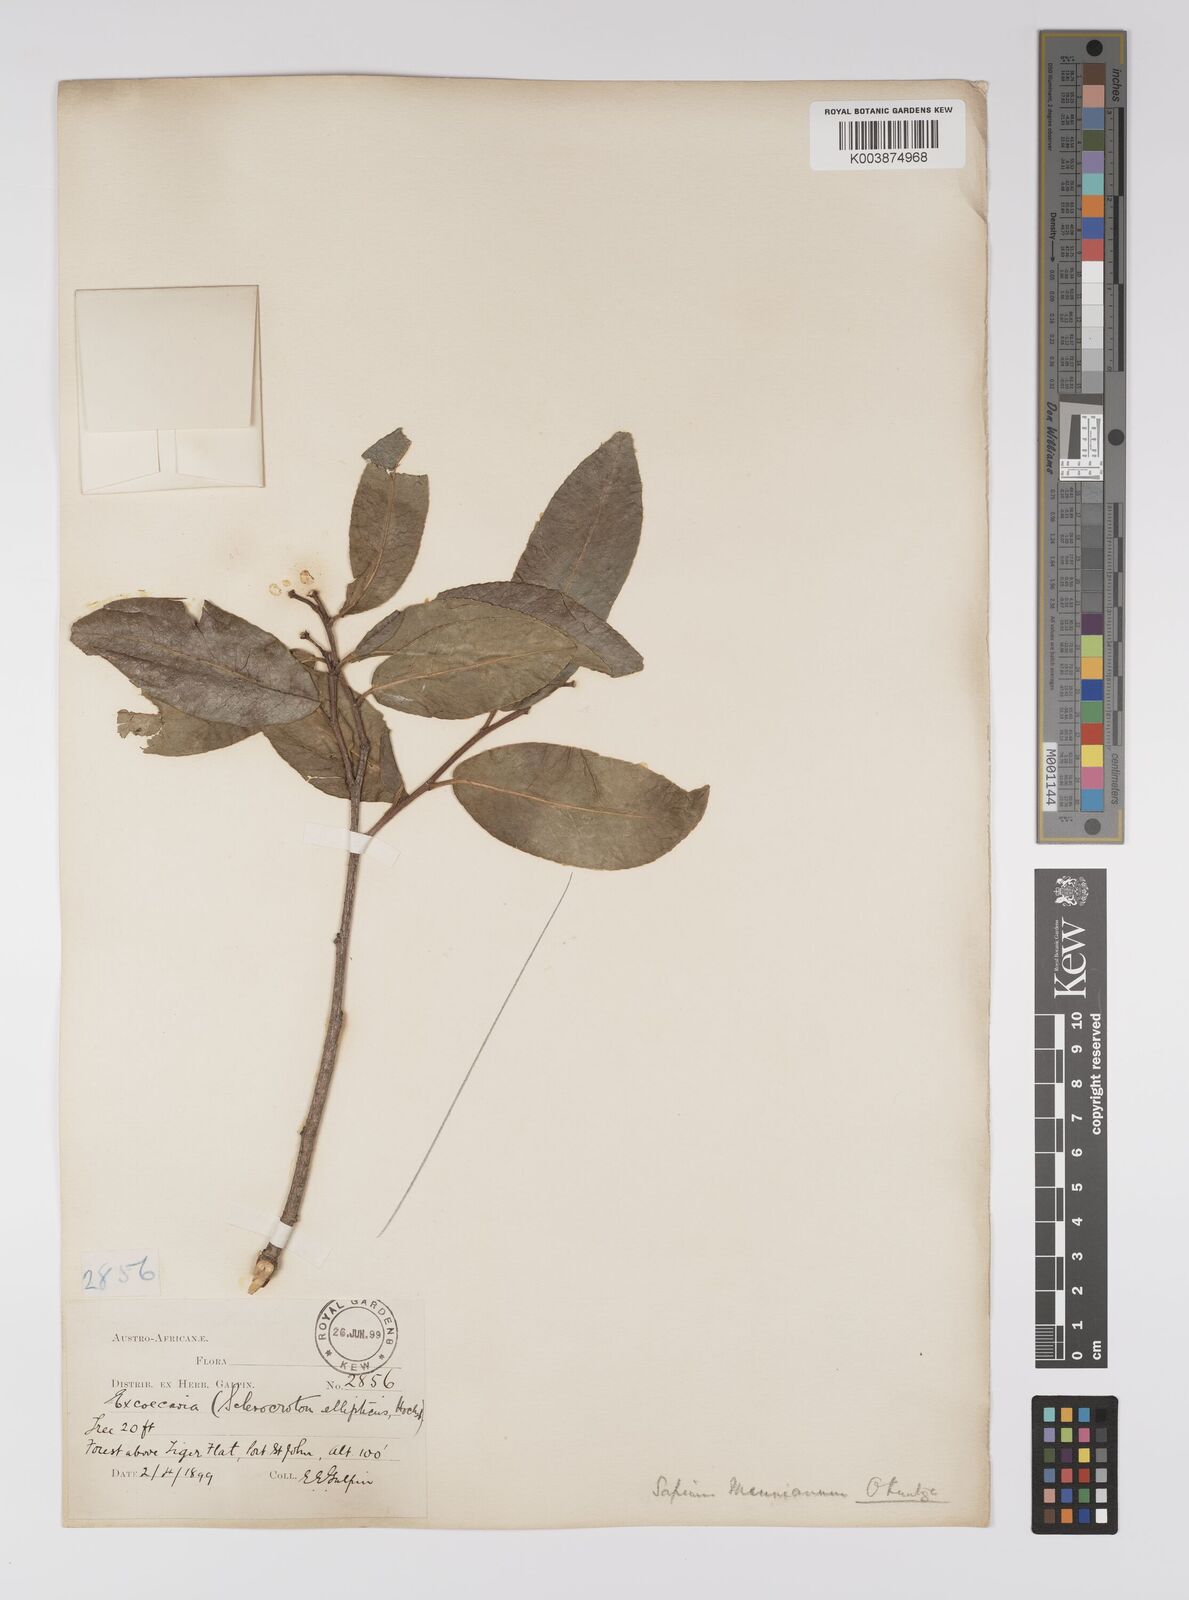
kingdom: Plantae
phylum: Tracheophyta
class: Magnoliopsida
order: Malpighiales
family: Euphorbiaceae
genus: Shirakiopsis
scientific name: Shirakiopsis elliptica
